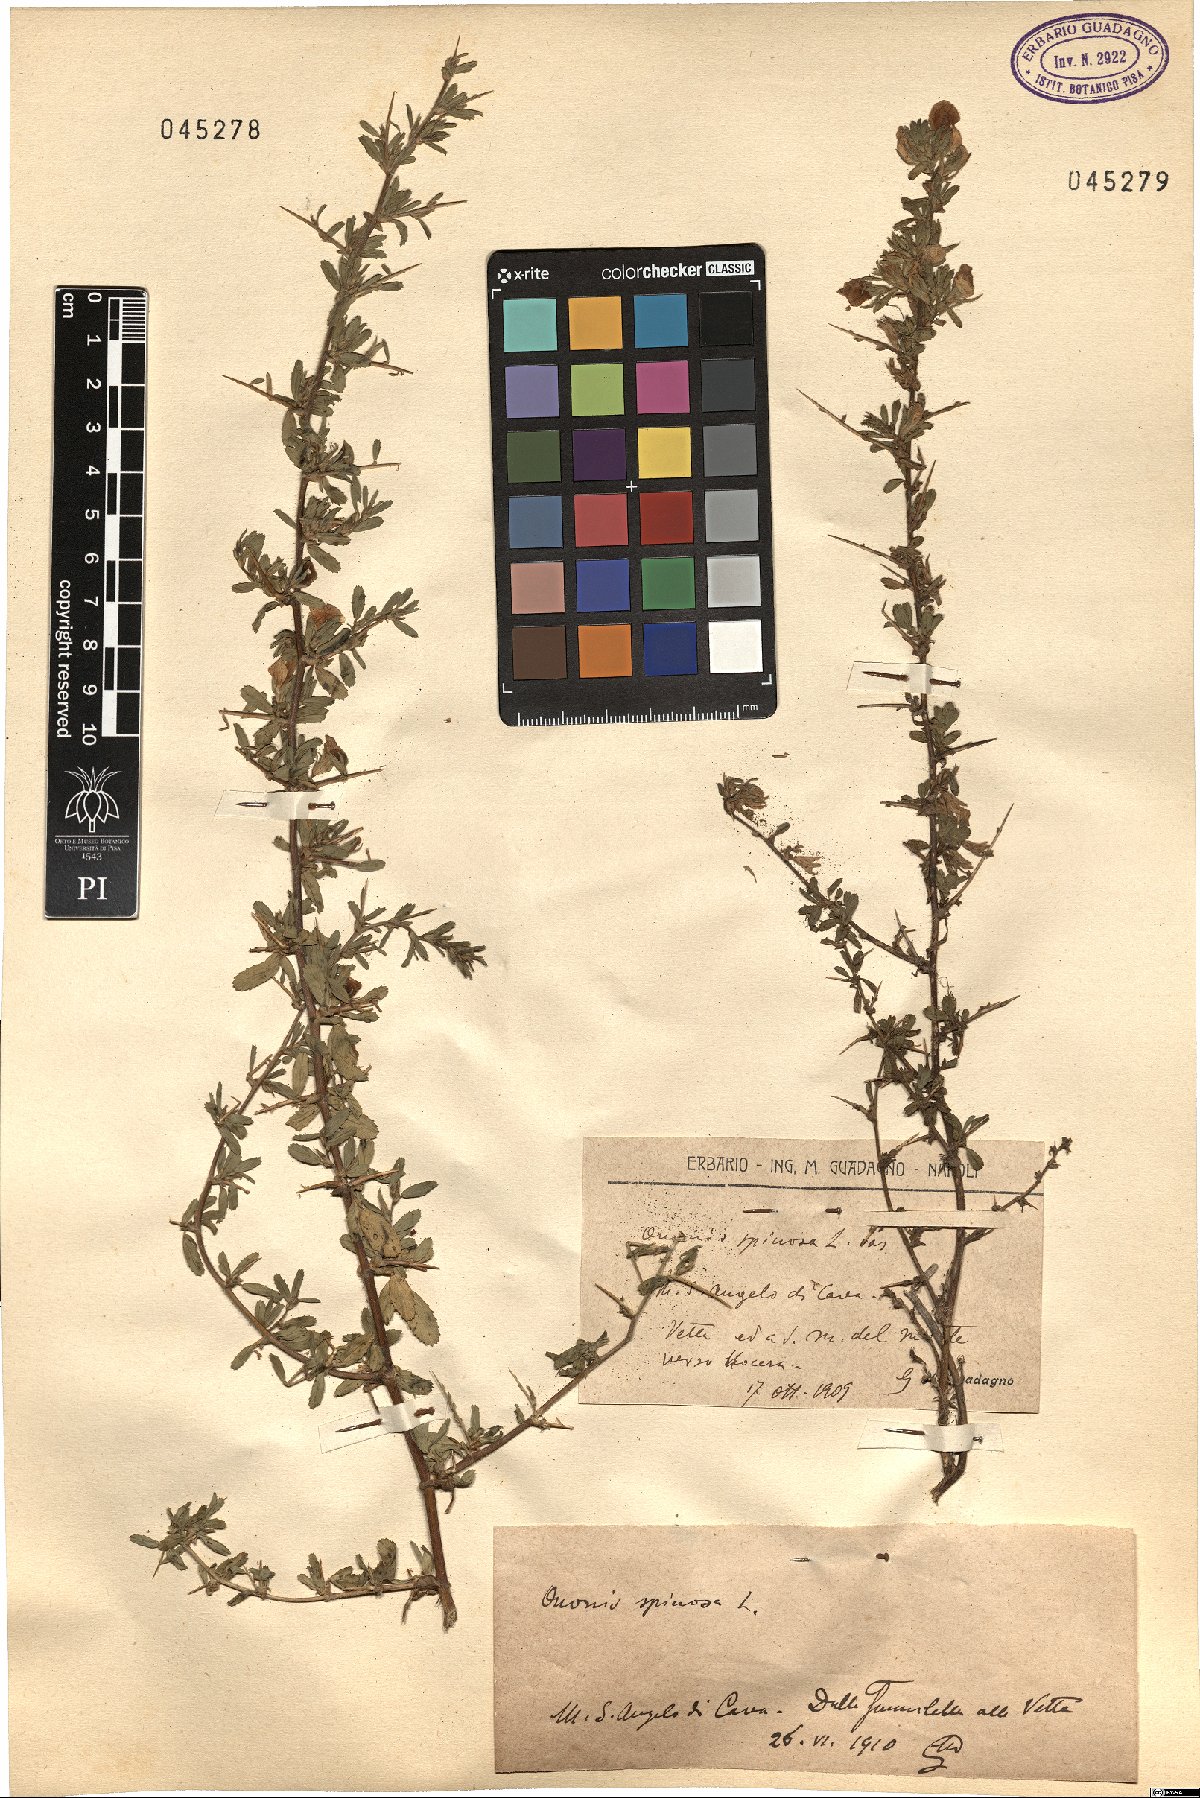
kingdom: Plantae
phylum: Tracheophyta
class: Magnoliopsida
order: Fabales
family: Fabaceae
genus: Ononis
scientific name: Ononis spinosa
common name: Spiny restharrow
